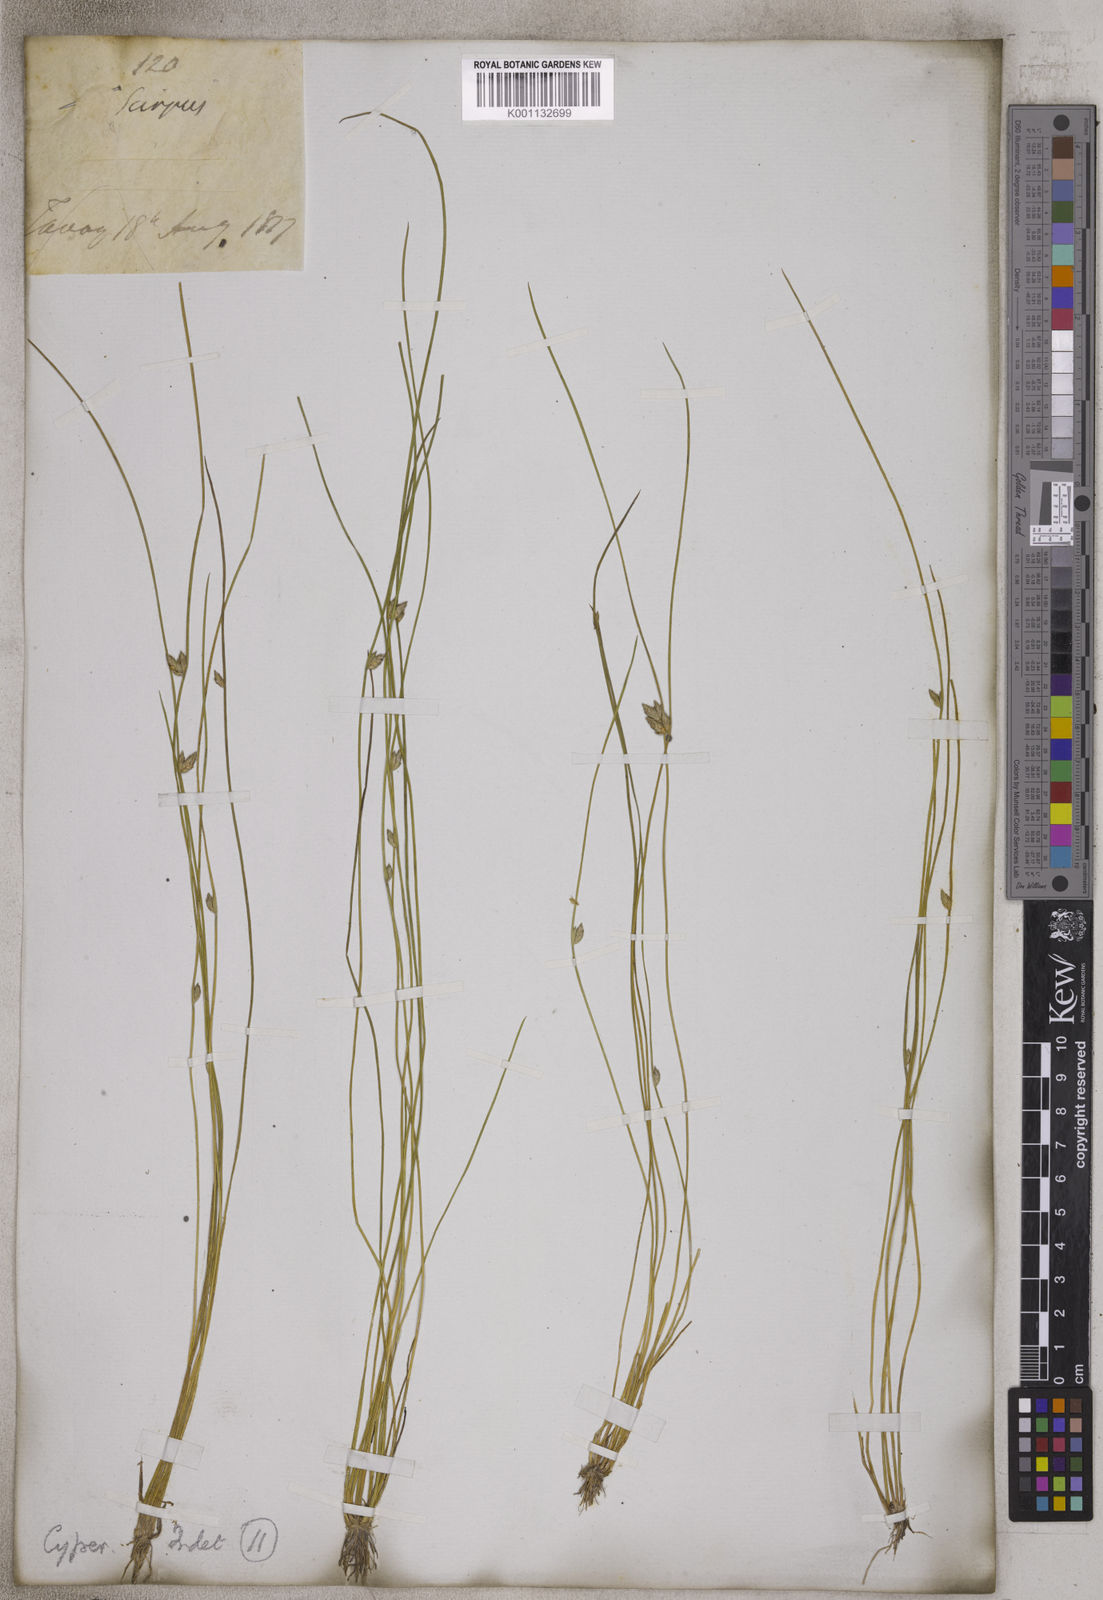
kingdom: Plantae
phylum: Tracheophyta
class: Liliopsida
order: Poales
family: Cyperaceae
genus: Scirpus
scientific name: Scirpus
